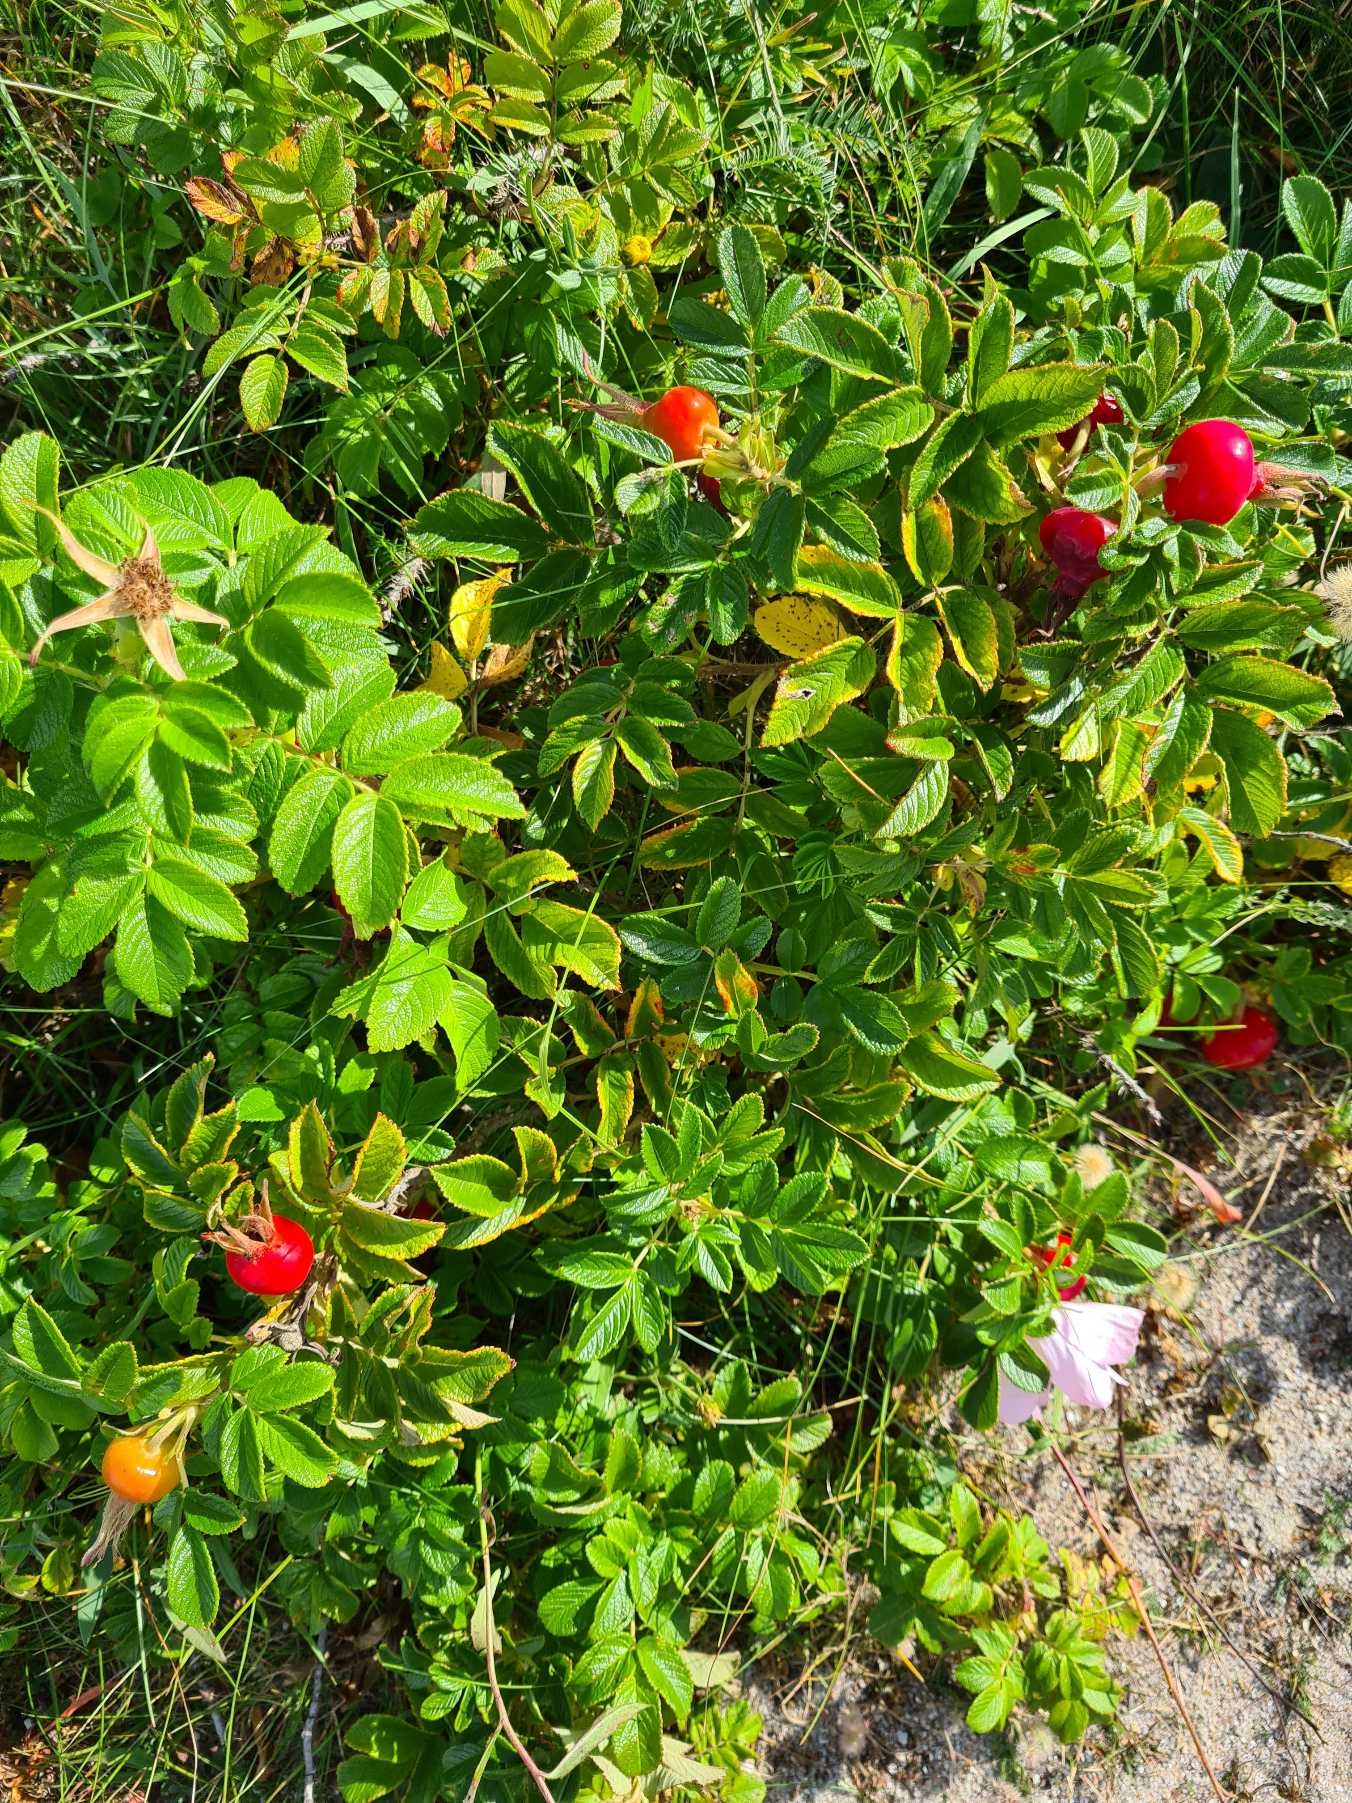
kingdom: Plantae
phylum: Tracheophyta
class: Magnoliopsida
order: Rosales
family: Rosaceae
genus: Rosa
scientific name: Rosa rugosa
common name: Rynket rose
